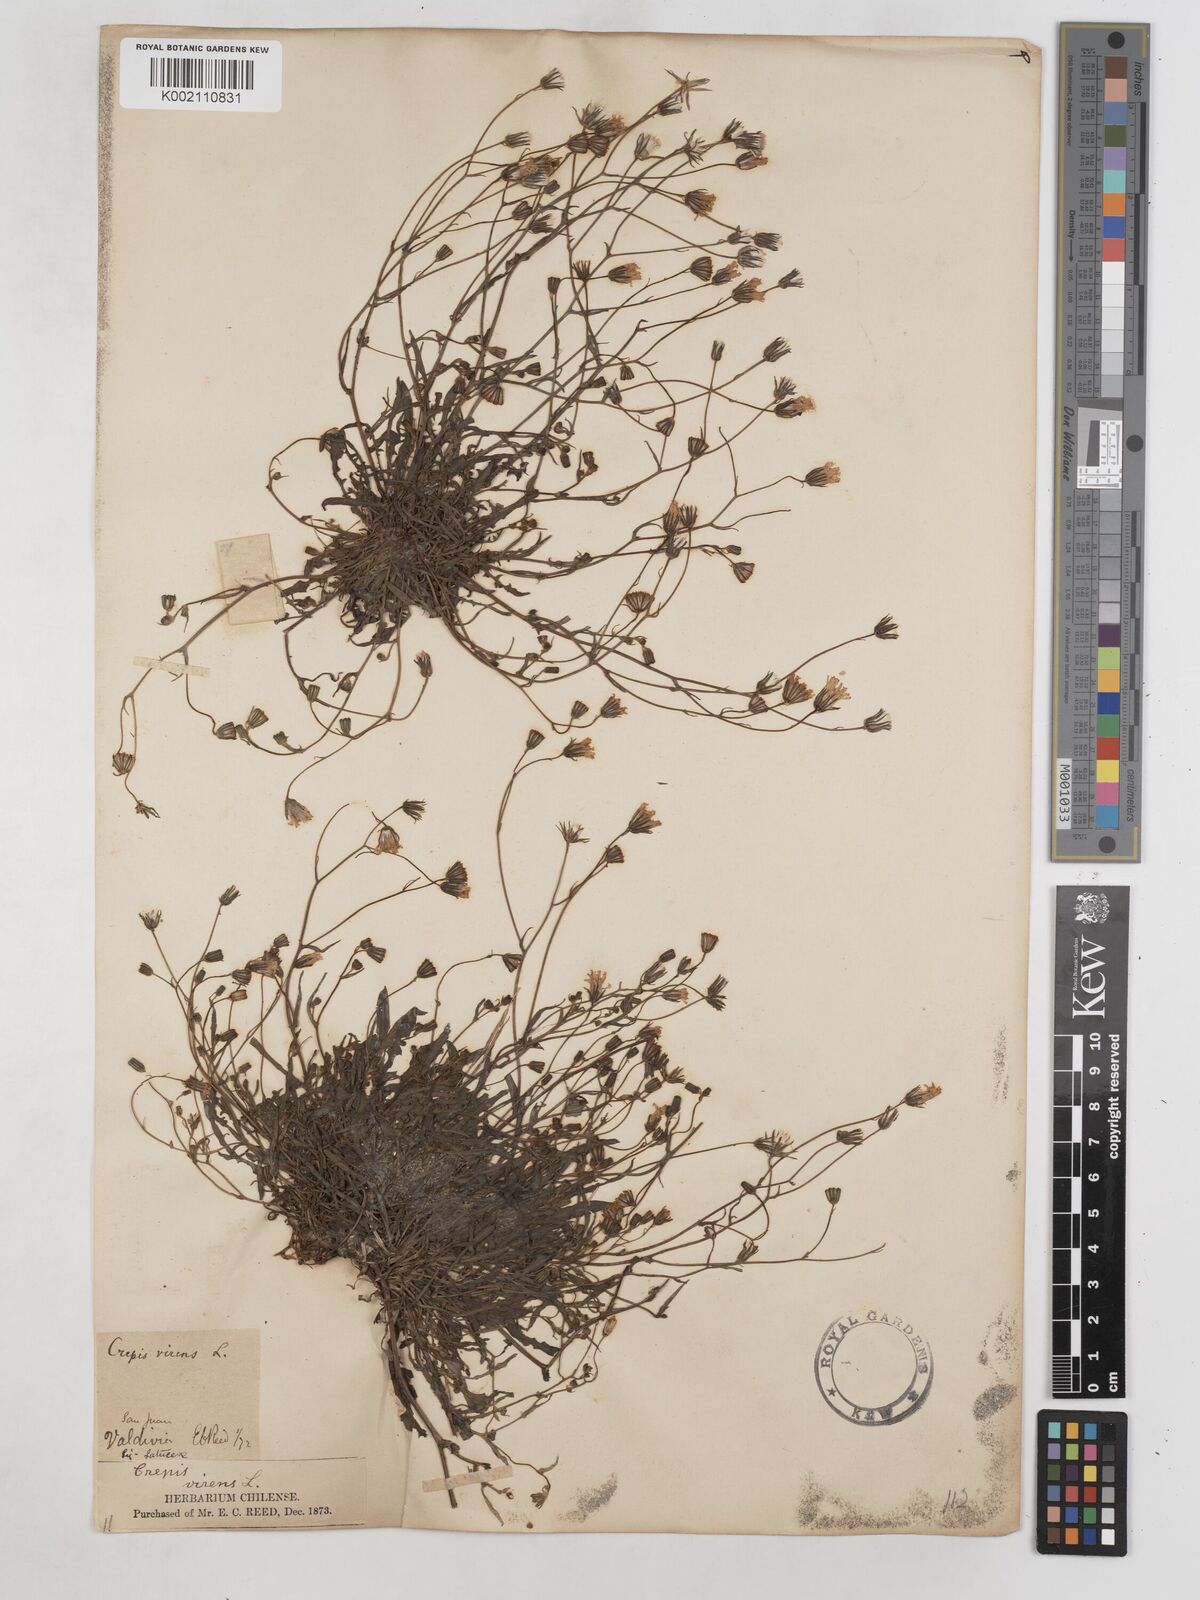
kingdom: Plantae
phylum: Tracheophyta
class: Magnoliopsida
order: Asterales
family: Asteraceae
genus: Crepis
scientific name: Crepis capillaris
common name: Smooth hawksbeard
